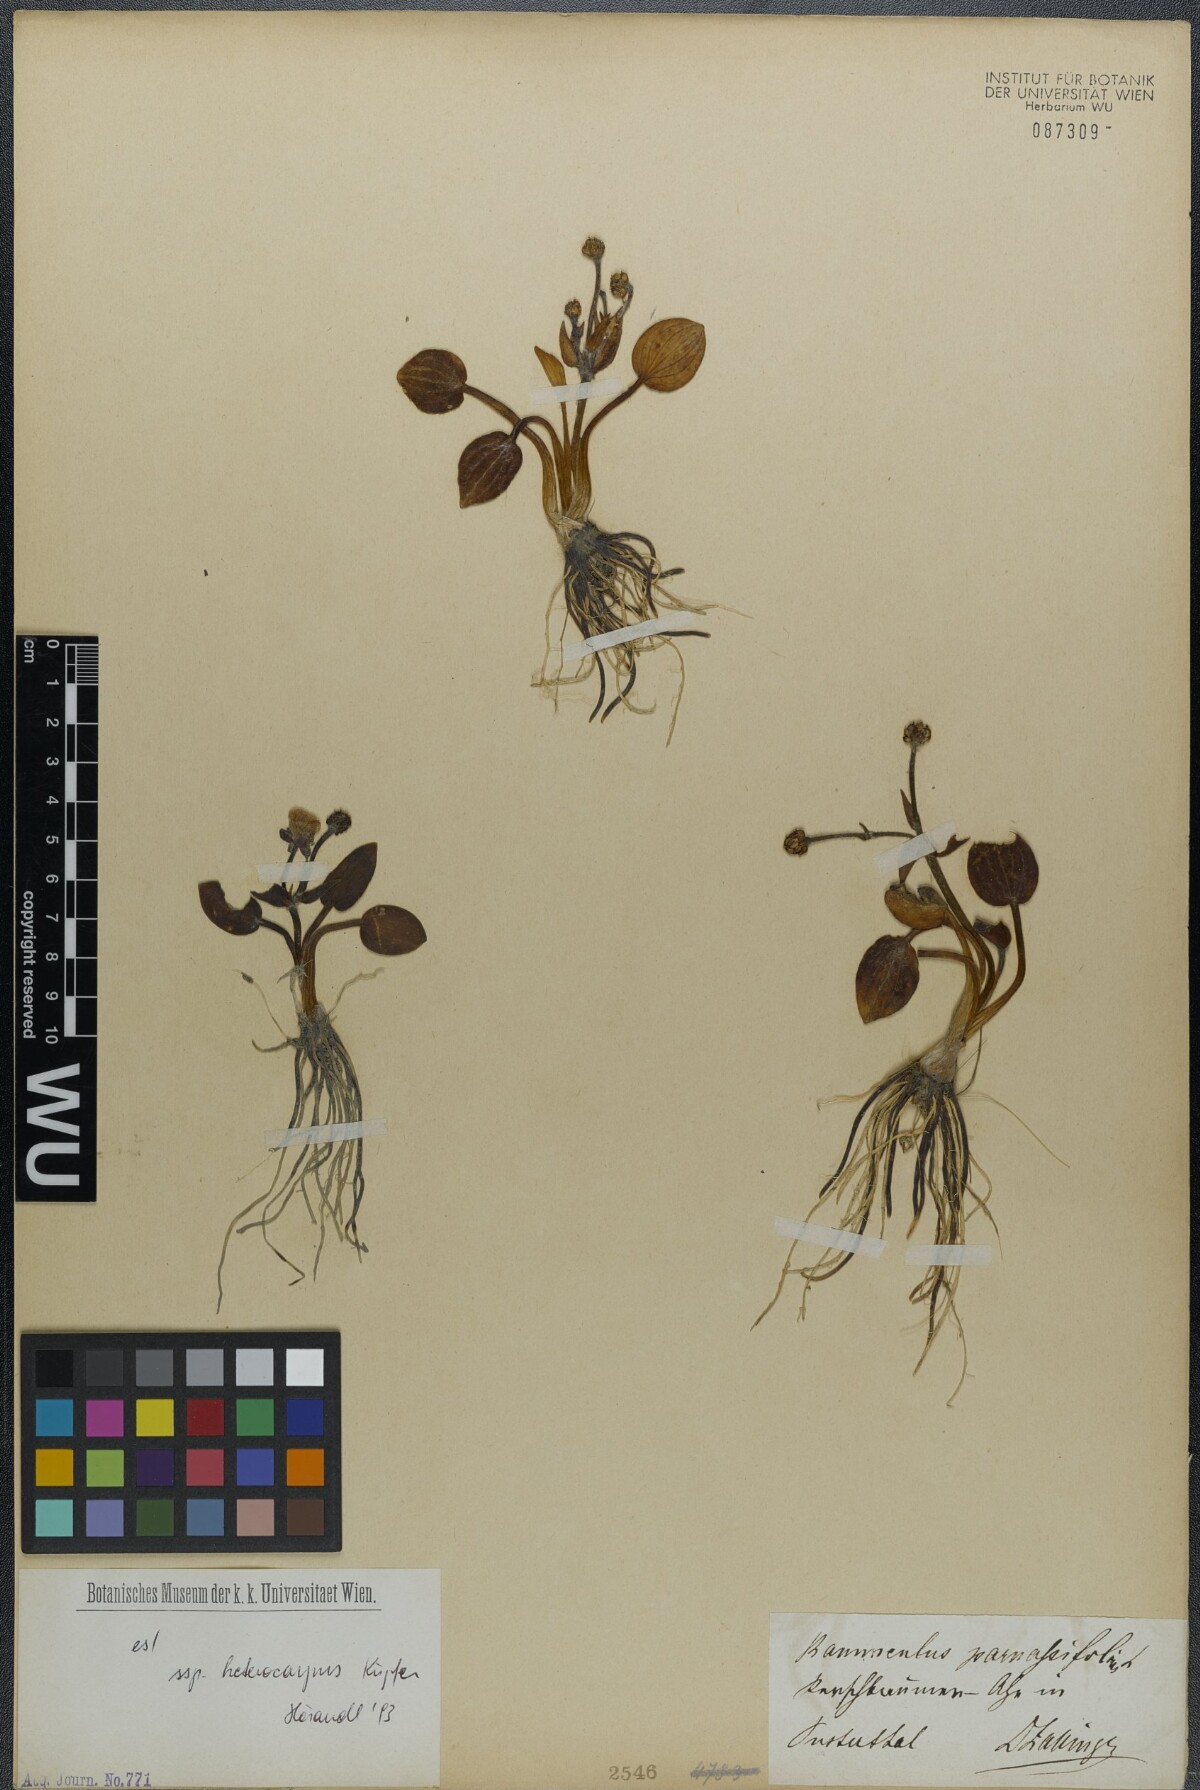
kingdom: Plantae
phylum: Tracheophyta
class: Magnoliopsida
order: Ranunculales
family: Ranunculaceae
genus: Ranunculus
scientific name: Ranunculus parnassiifolius
